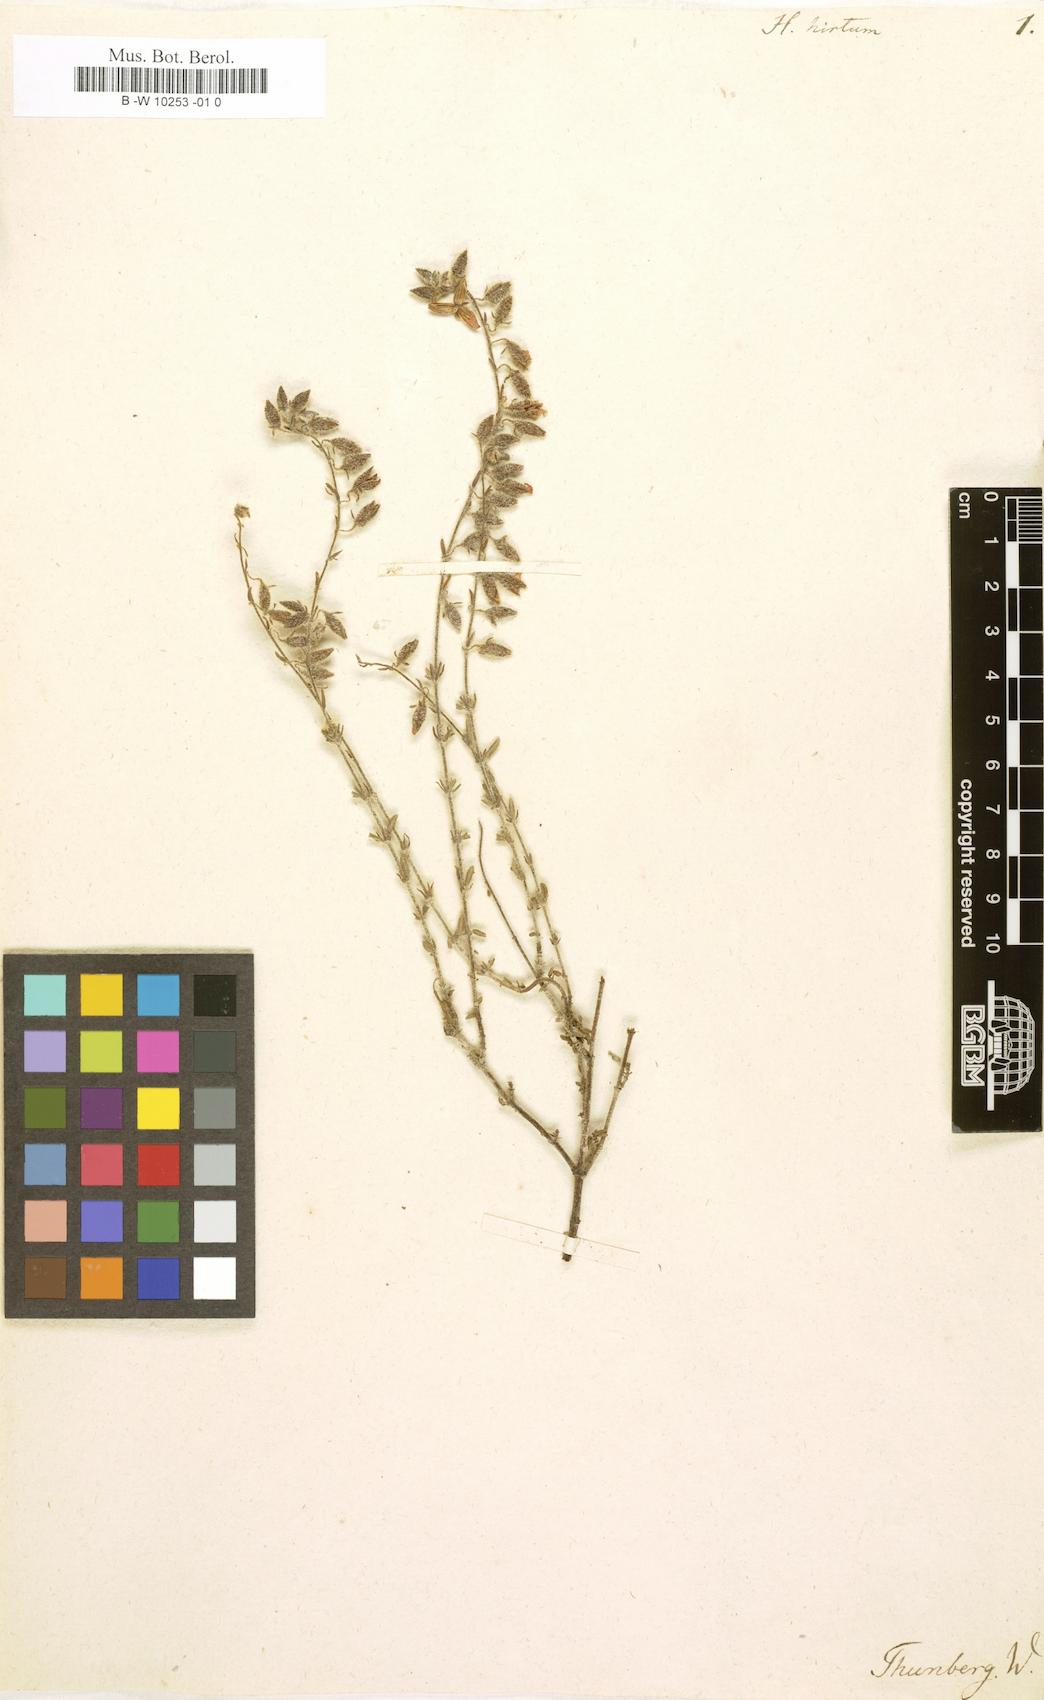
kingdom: Plantae
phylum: Tracheophyta
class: Magnoliopsida
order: Malvales
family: Cistaceae
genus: Helianthemum
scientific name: Helianthemum hirtum
